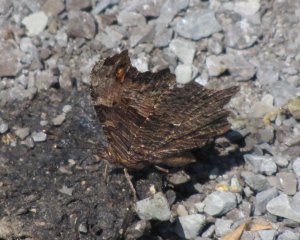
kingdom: Animalia
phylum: Arthropoda
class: Insecta
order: Lepidoptera
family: Nymphalidae
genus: Polygonia
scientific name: Polygonia progne
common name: Gray Comma
